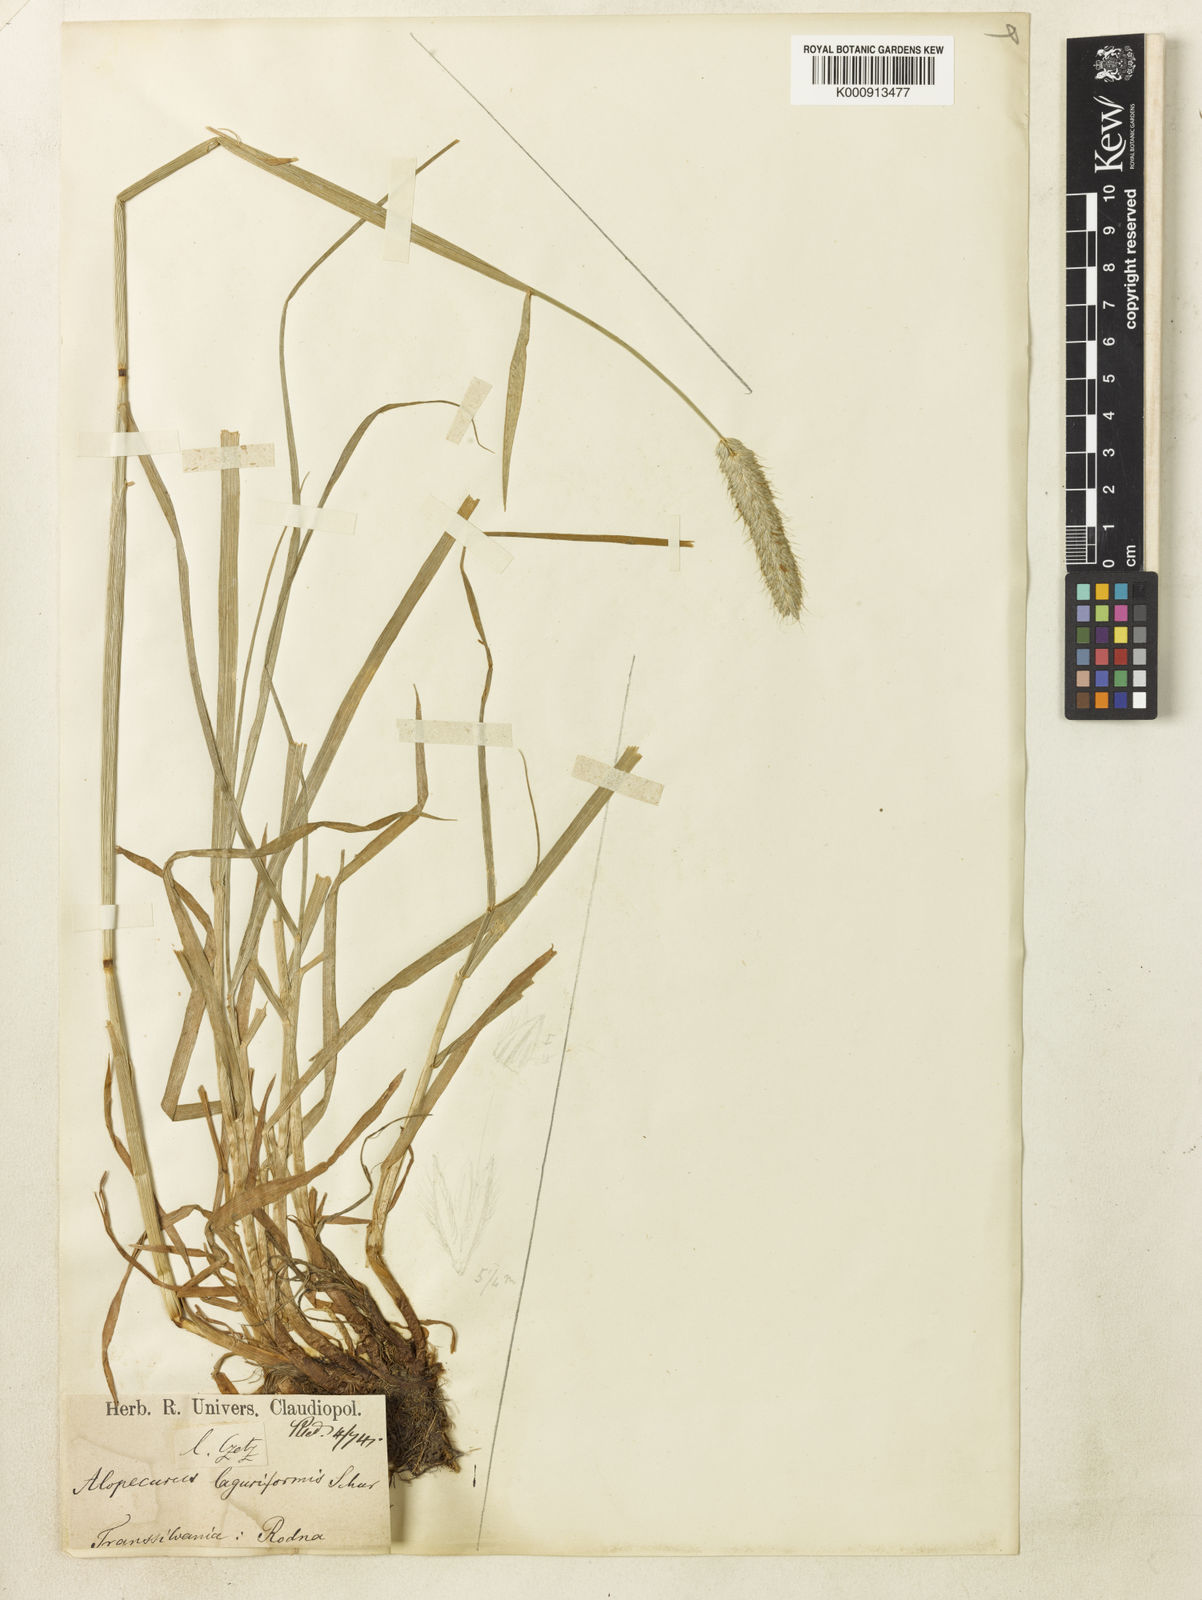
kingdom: Plantae
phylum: Tracheophyta
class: Liliopsida
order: Poales
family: Poaceae
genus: Alopecurus
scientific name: Alopecurus pratensis
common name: Meadow foxtail
